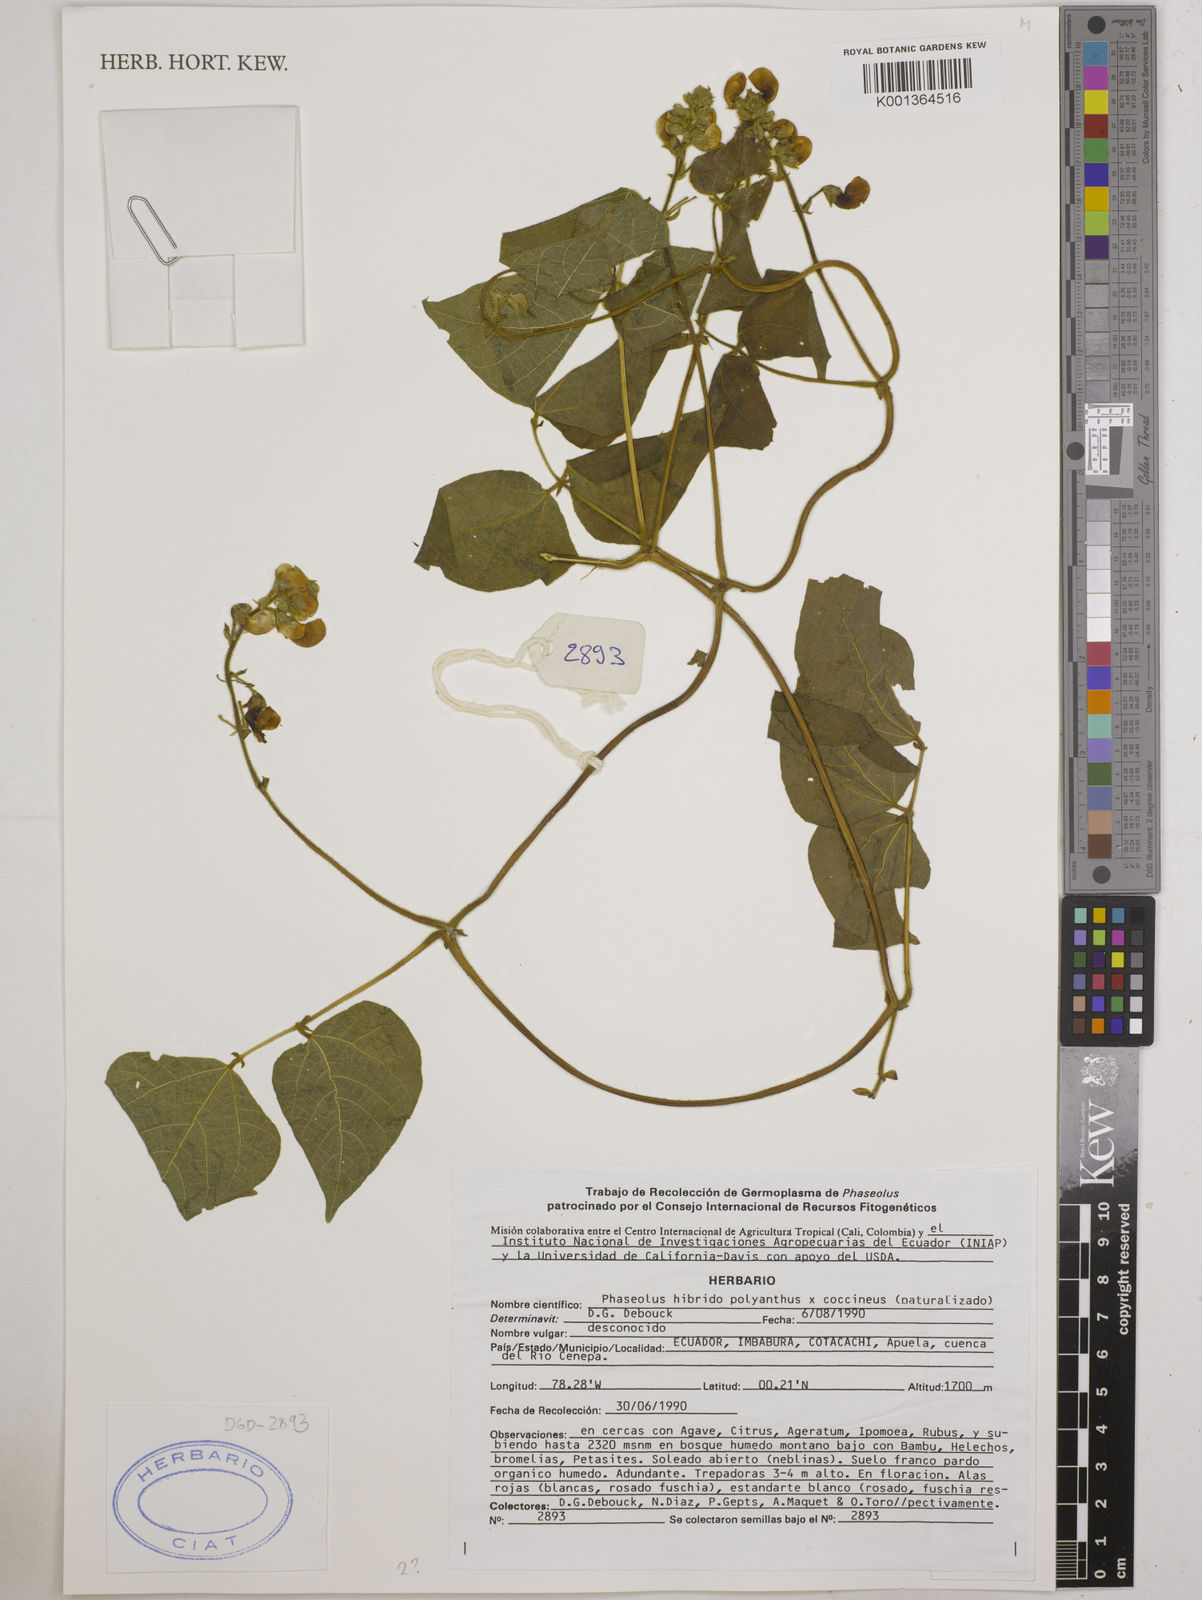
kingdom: Plantae
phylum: Tracheophyta
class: Magnoliopsida
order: Fabales
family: Fabaceae
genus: Phaseolus
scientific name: Phaseolus dumosus
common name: Year bean
